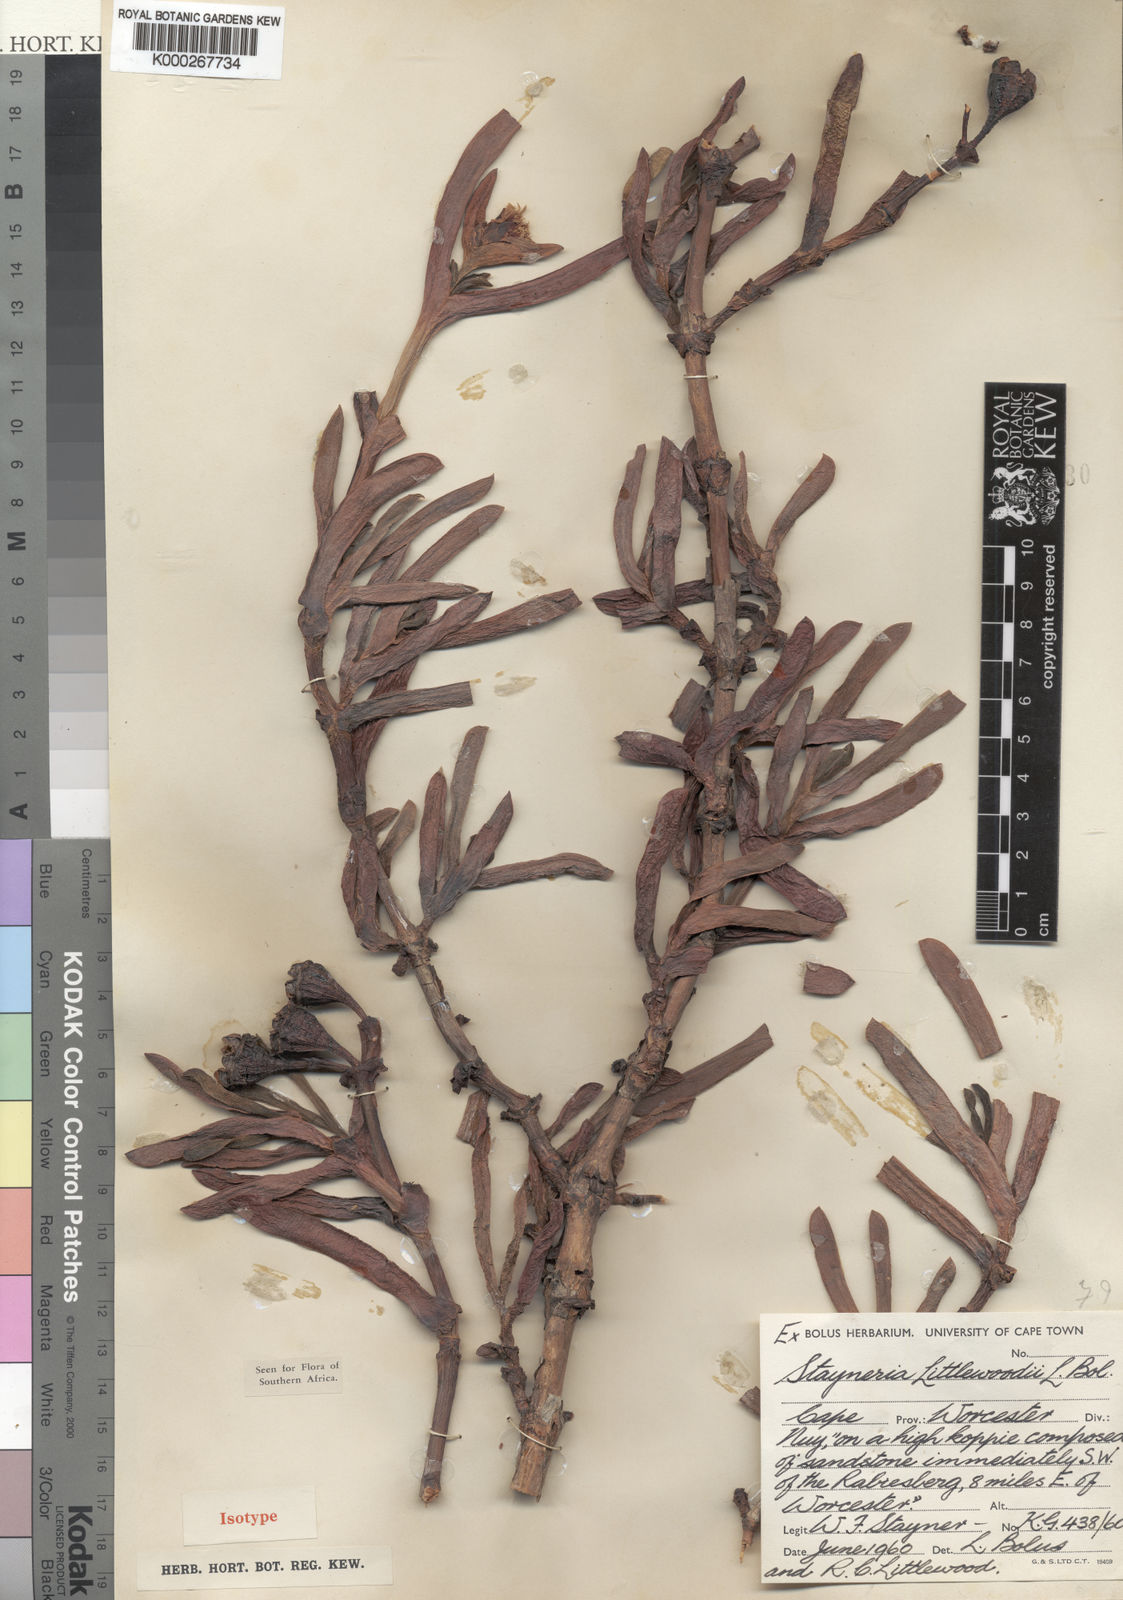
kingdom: Plantae
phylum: Tracheophyta
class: Magnoliopsida
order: Caryophyllales
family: Aizoaceae
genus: Ruschia
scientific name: Ruschia nelii
